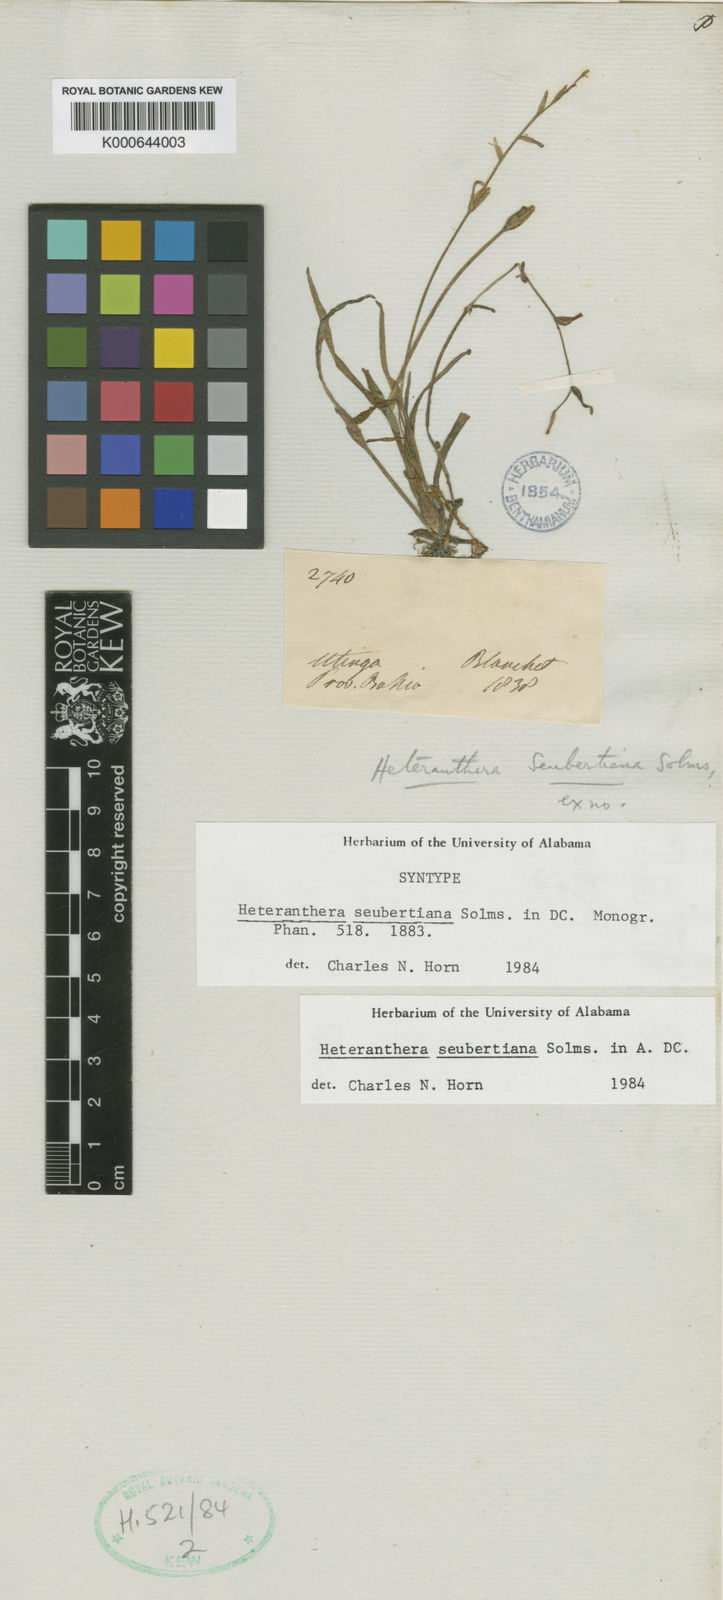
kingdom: Plantae
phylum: Tracheophyta
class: Liliopsida
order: Commelinales
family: Pontederiaceae
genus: Heteranthera
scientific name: Heteranthera seubertiana
